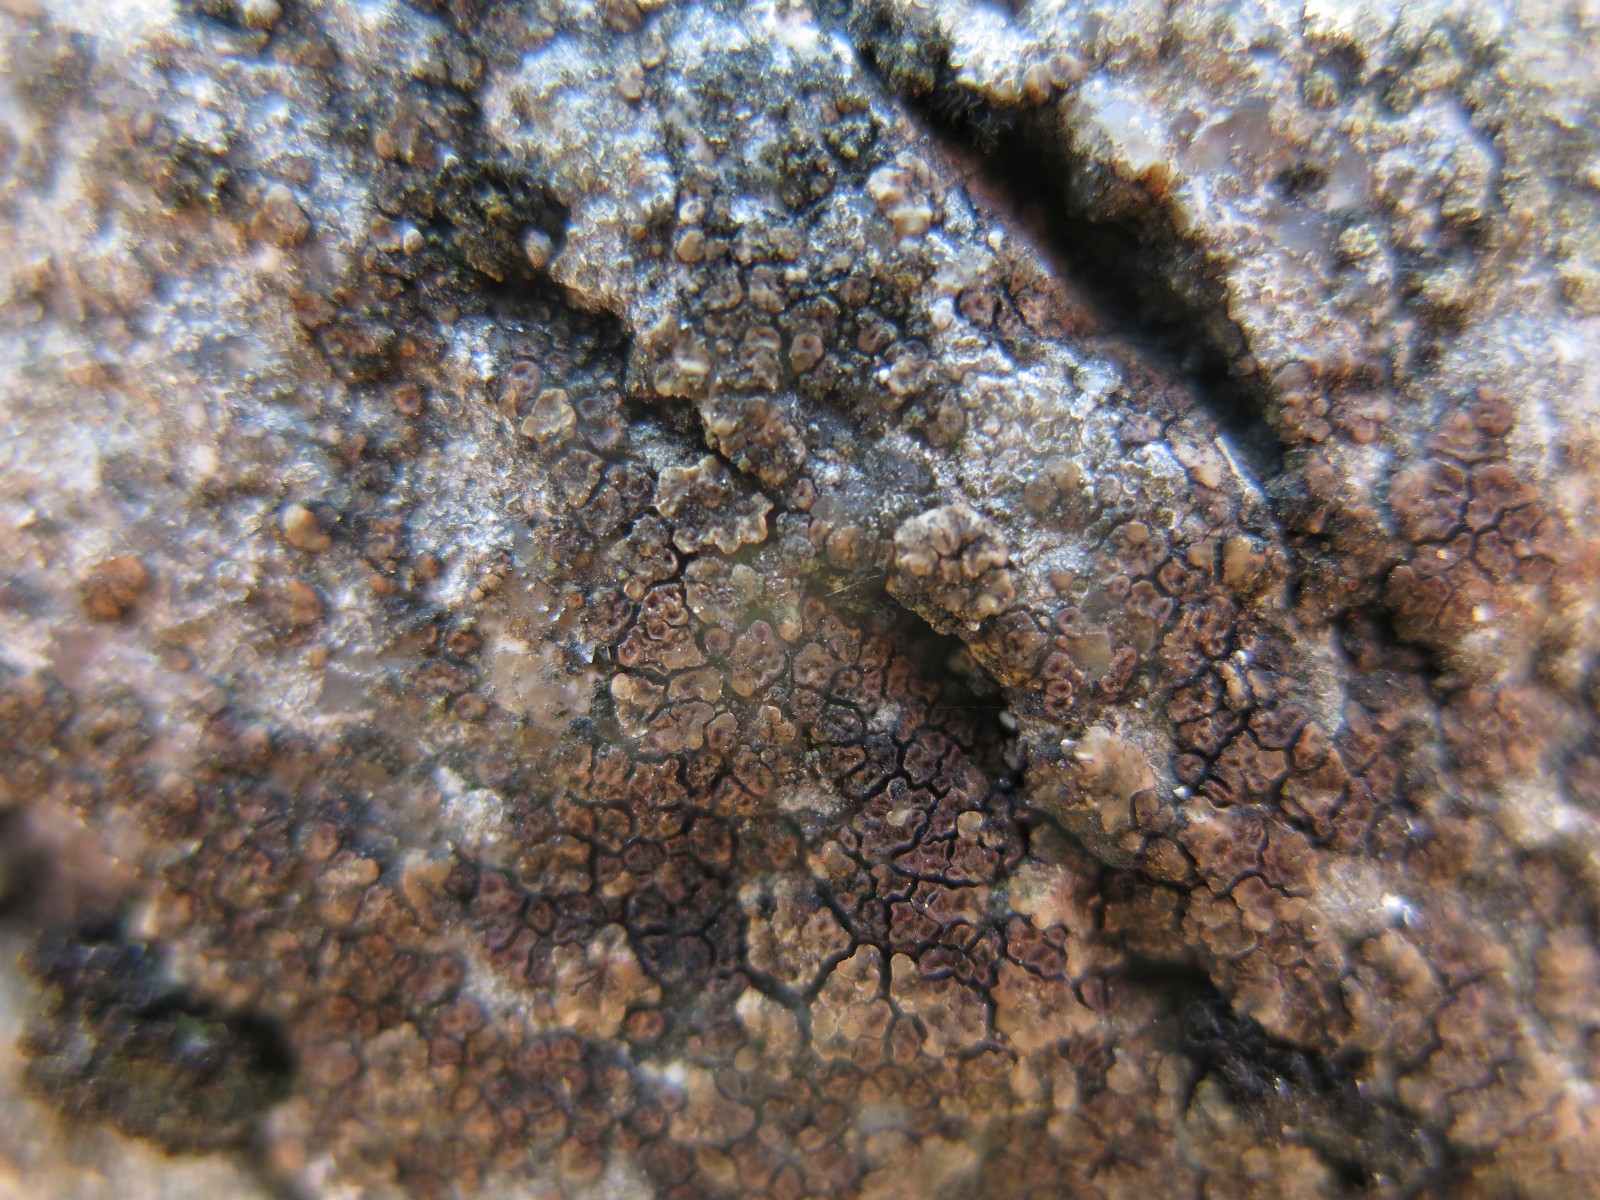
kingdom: Fungi
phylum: Ascomycota
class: Lecanoromycetes
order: Acarosporales
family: Acarosporaceae
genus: Acarospora
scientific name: Acarospora fuscata
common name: brun småsporelav
